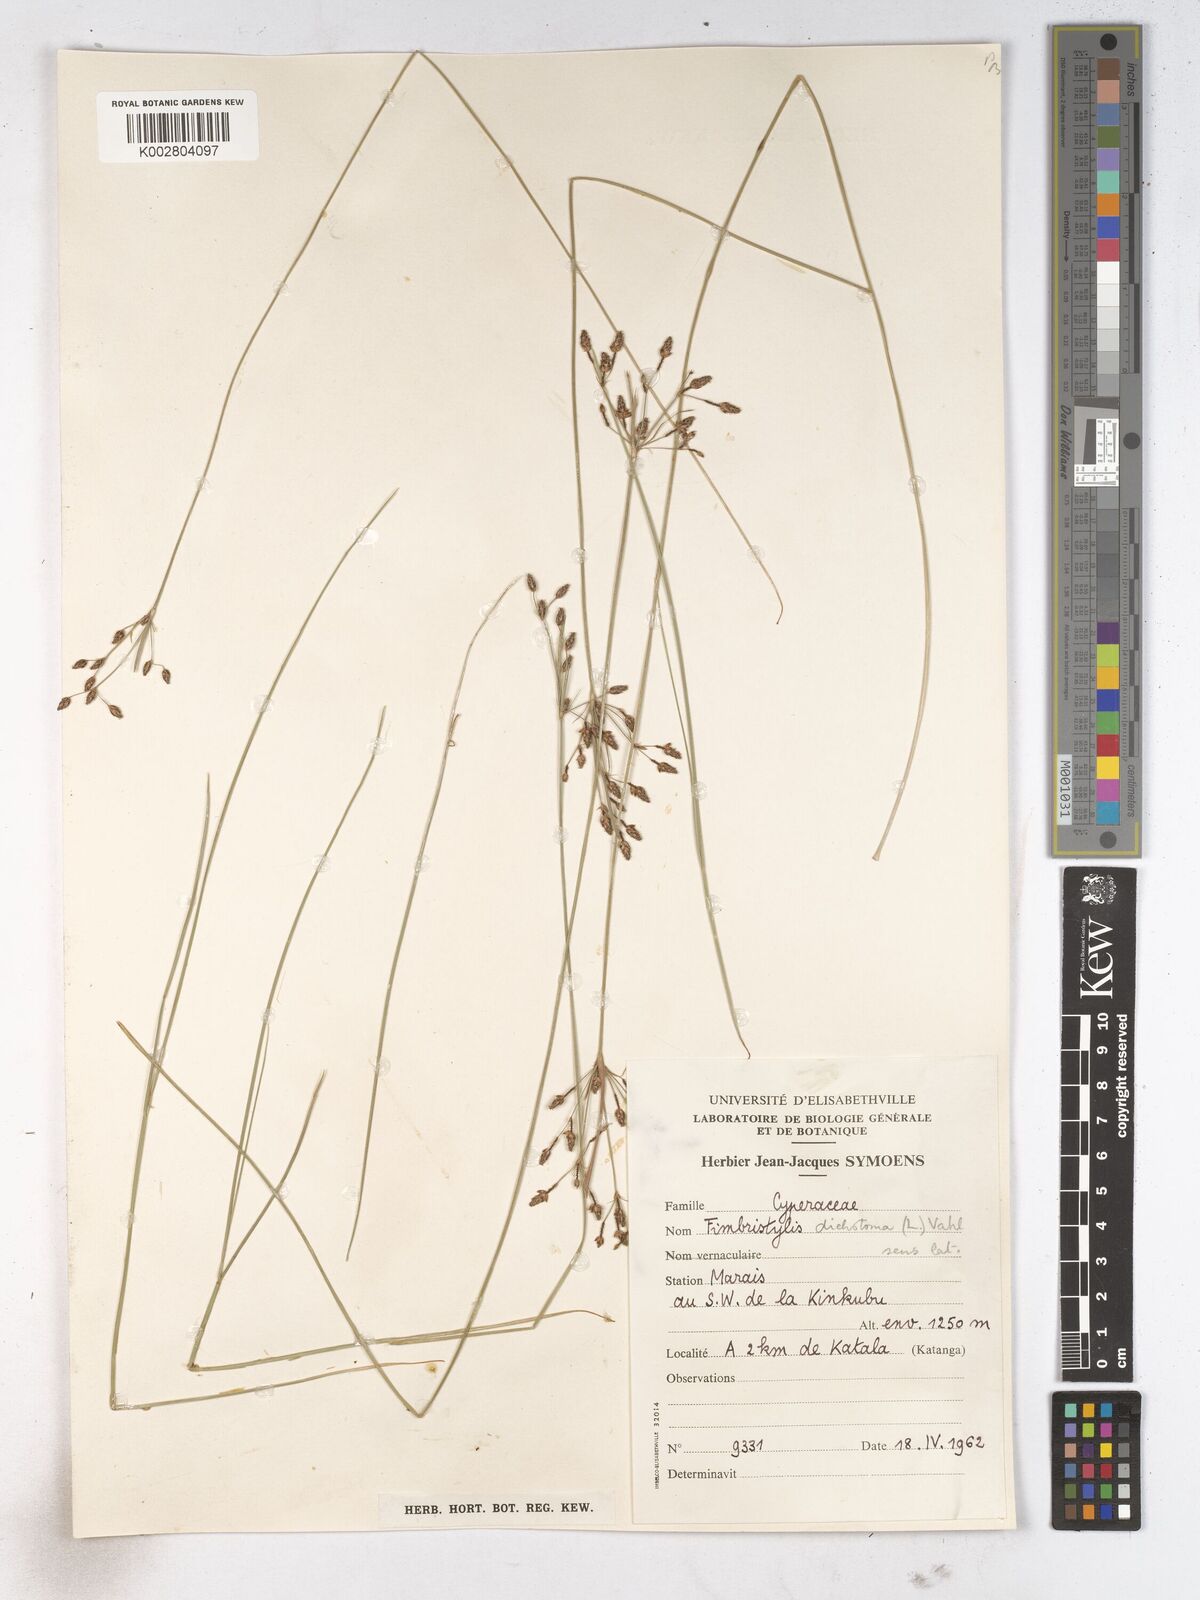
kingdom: Plantae
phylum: Tracheophyta
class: Liliopsida
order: Poales
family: Cyperaceae
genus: Fimbristylis
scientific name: Fimbristylis dichotoma
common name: Forked fimbry
